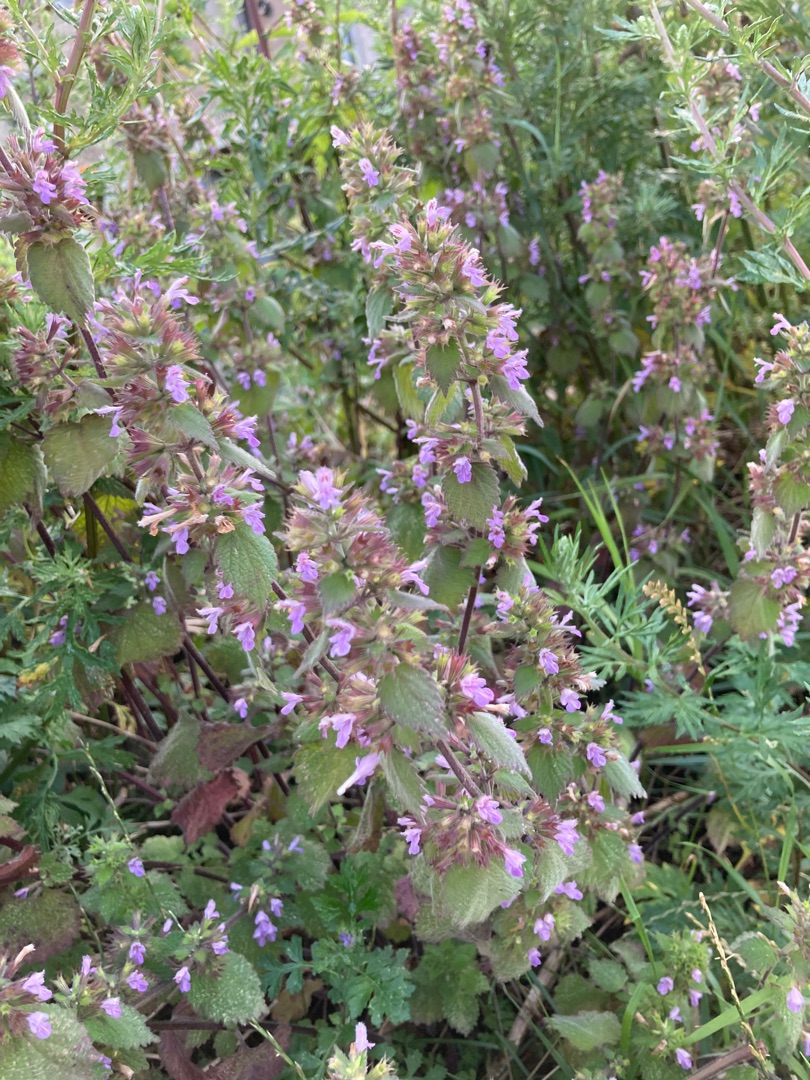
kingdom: Plantae
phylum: Tracheophyta
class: Magnoliopsida
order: Lamiales
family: Lamiaceae
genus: Ballota
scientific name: Ballota nigra
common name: Tandbæger
